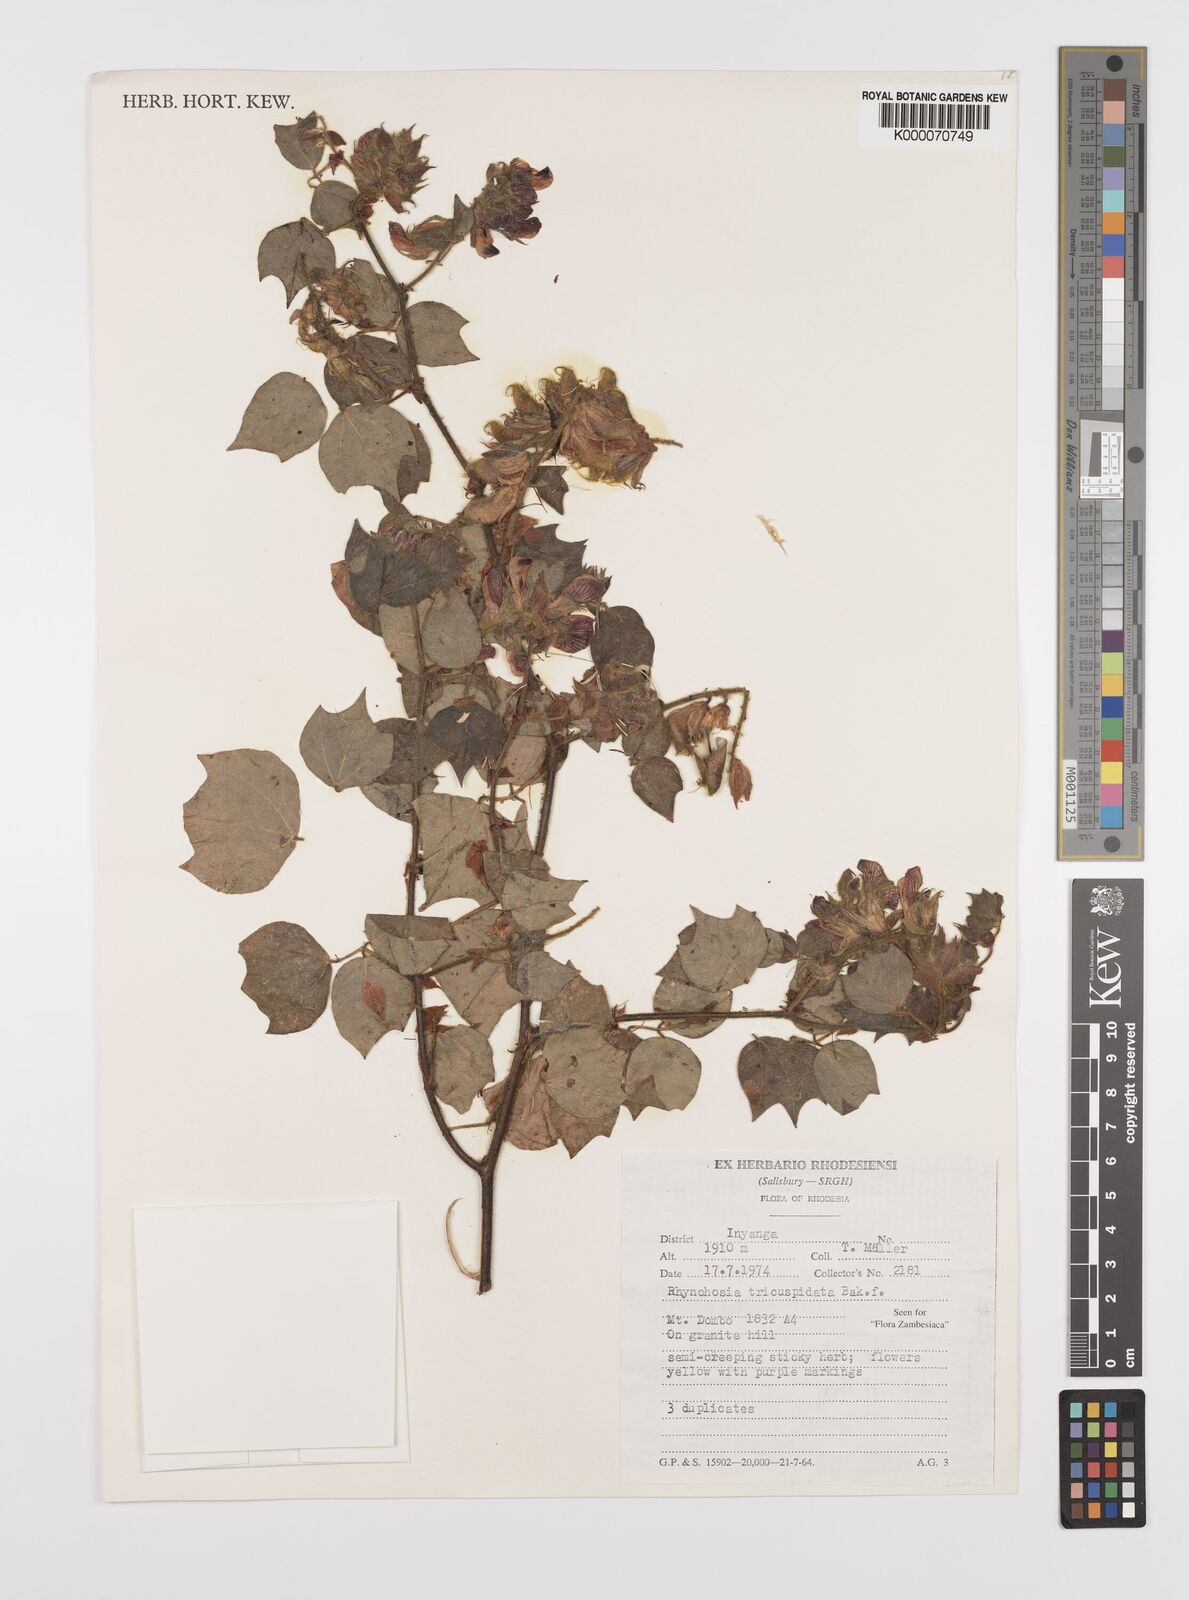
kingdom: Plantae
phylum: Tracheophyta
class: Magnoliopsida
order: Fabales
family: Fabaceae
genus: Rhynchosia
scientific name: Rhynchosia tricuspidata
